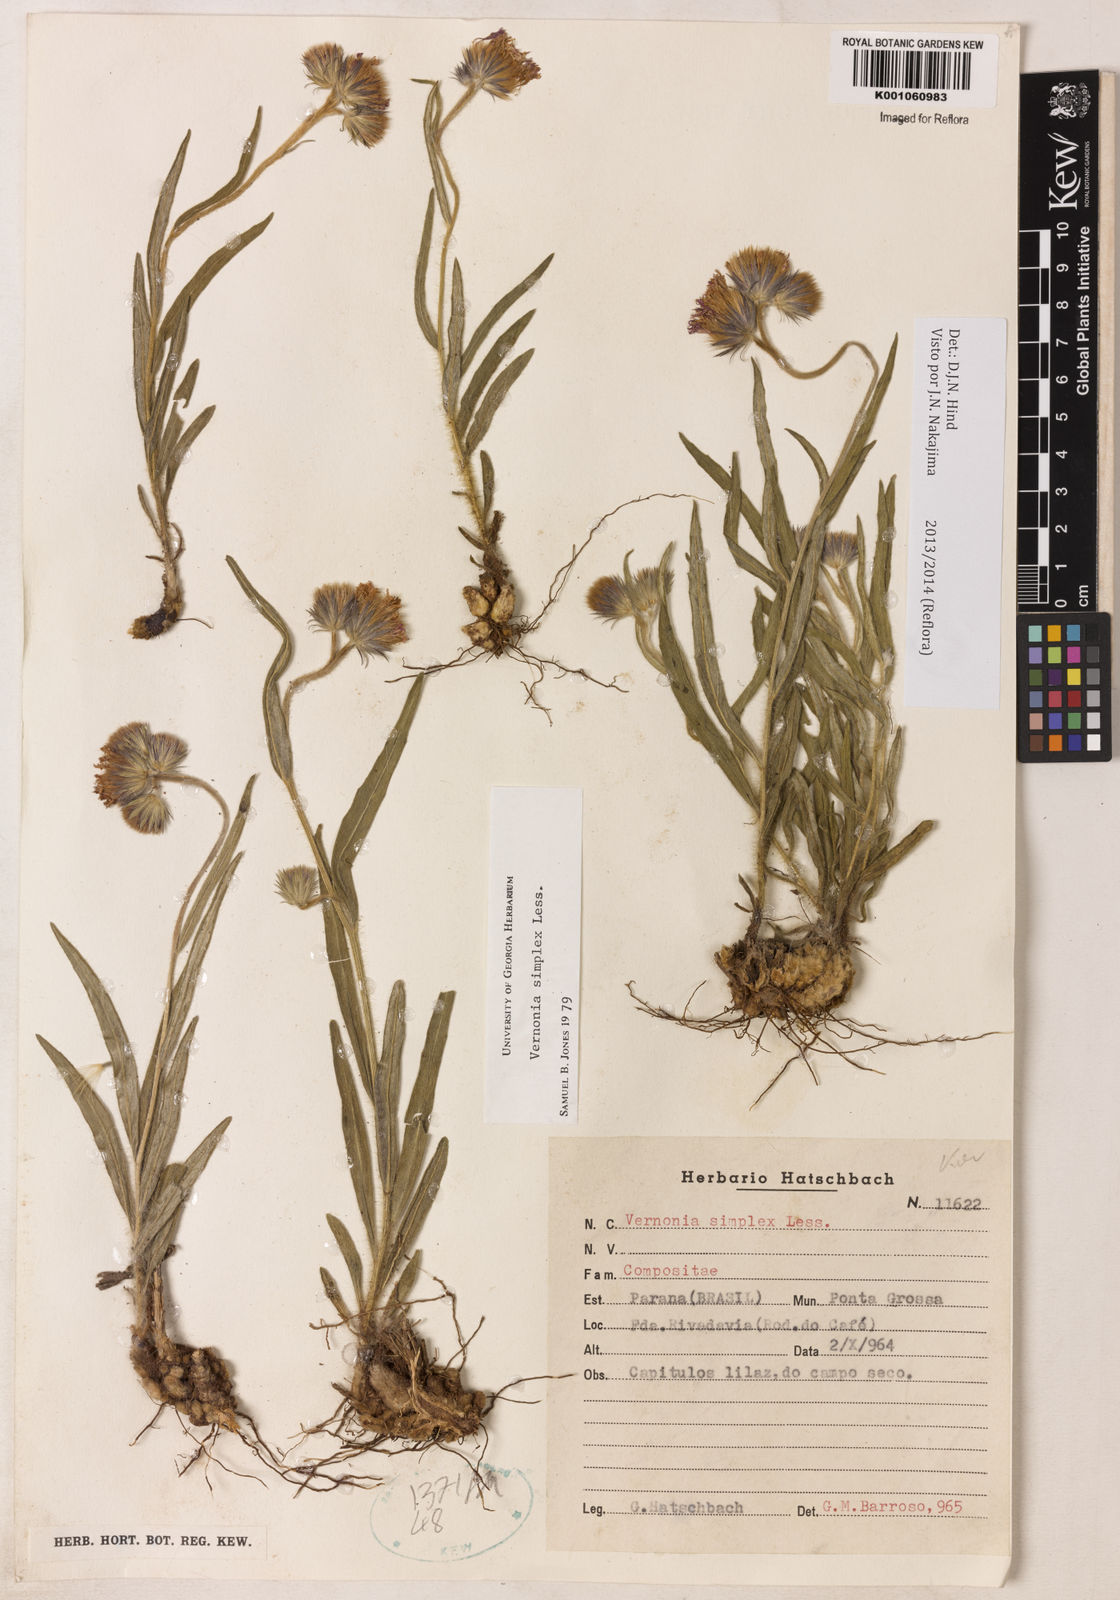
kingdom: Plantae
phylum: Tracheophyta
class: Magnoliopsida
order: Asterales
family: Asteraceae
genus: Chrysolaena
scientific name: Chrysolaena simplex
